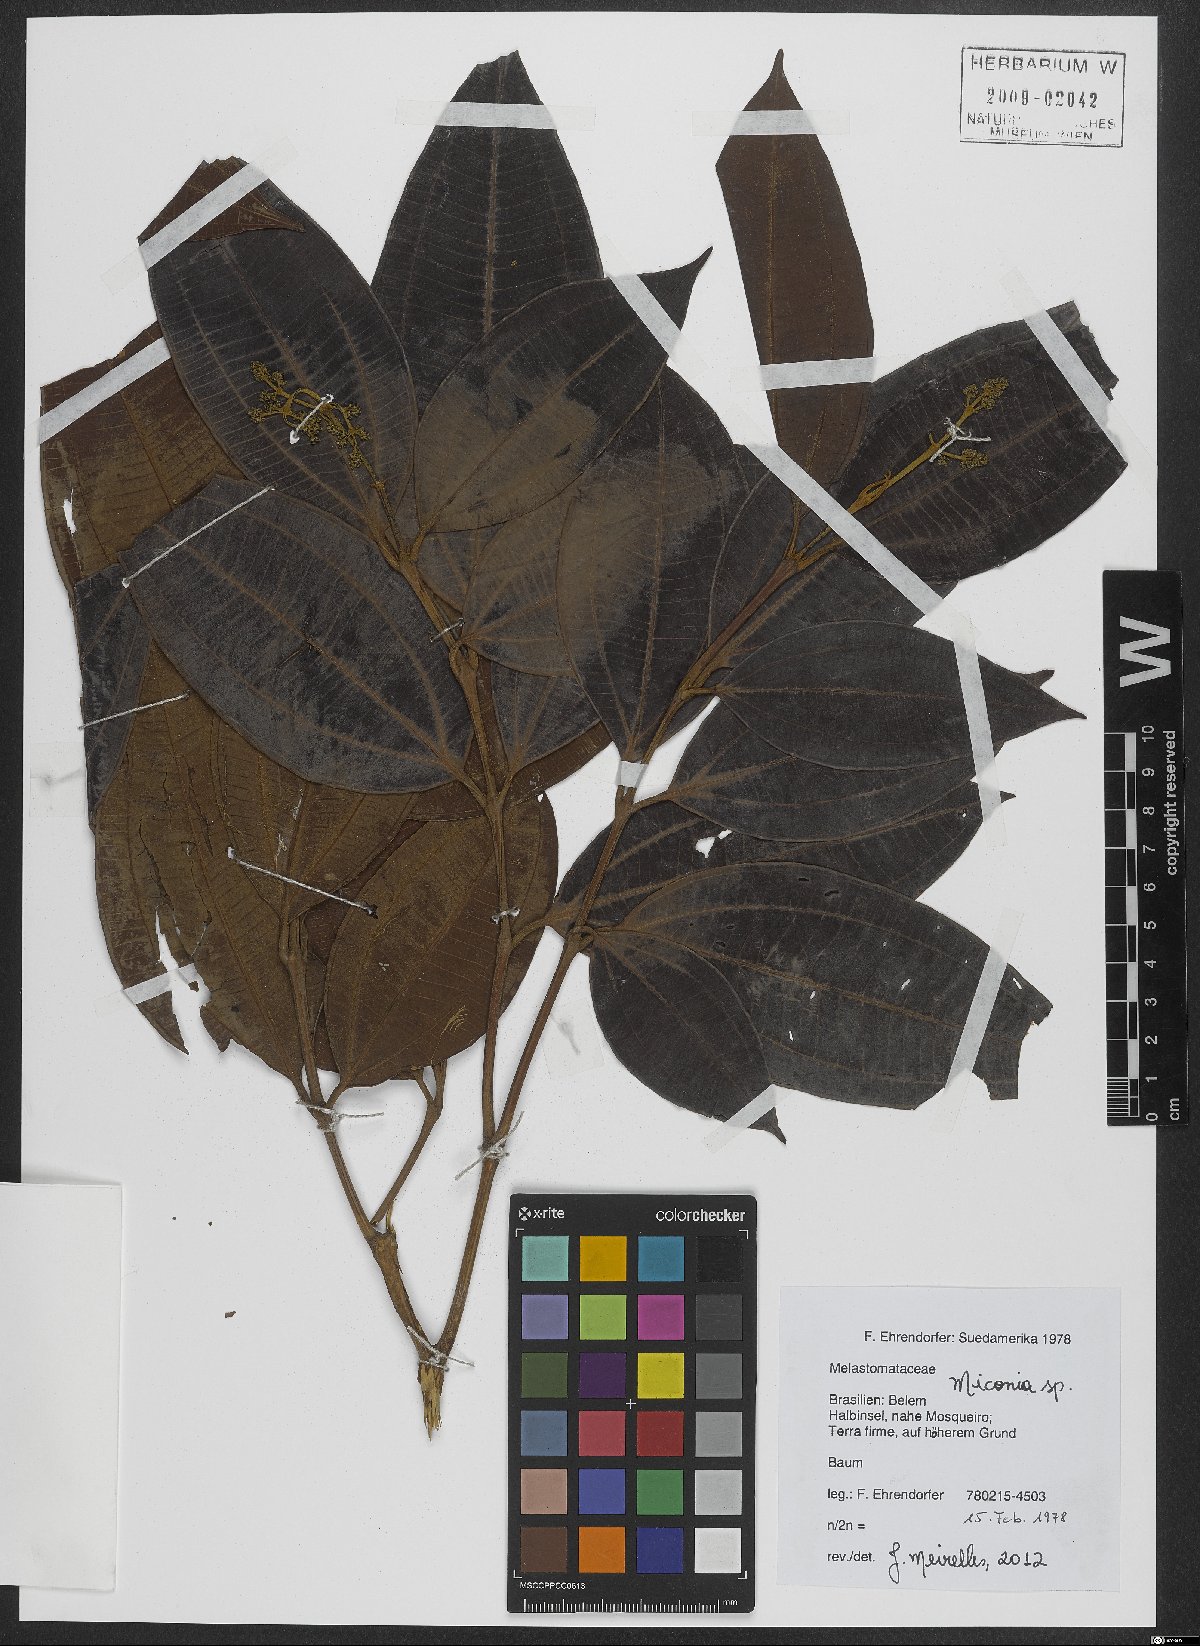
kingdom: Plantae
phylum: Tracheophyta
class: Magnoliopsida
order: Myrtales
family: Melastomataceae
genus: Miconia
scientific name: Miconia
